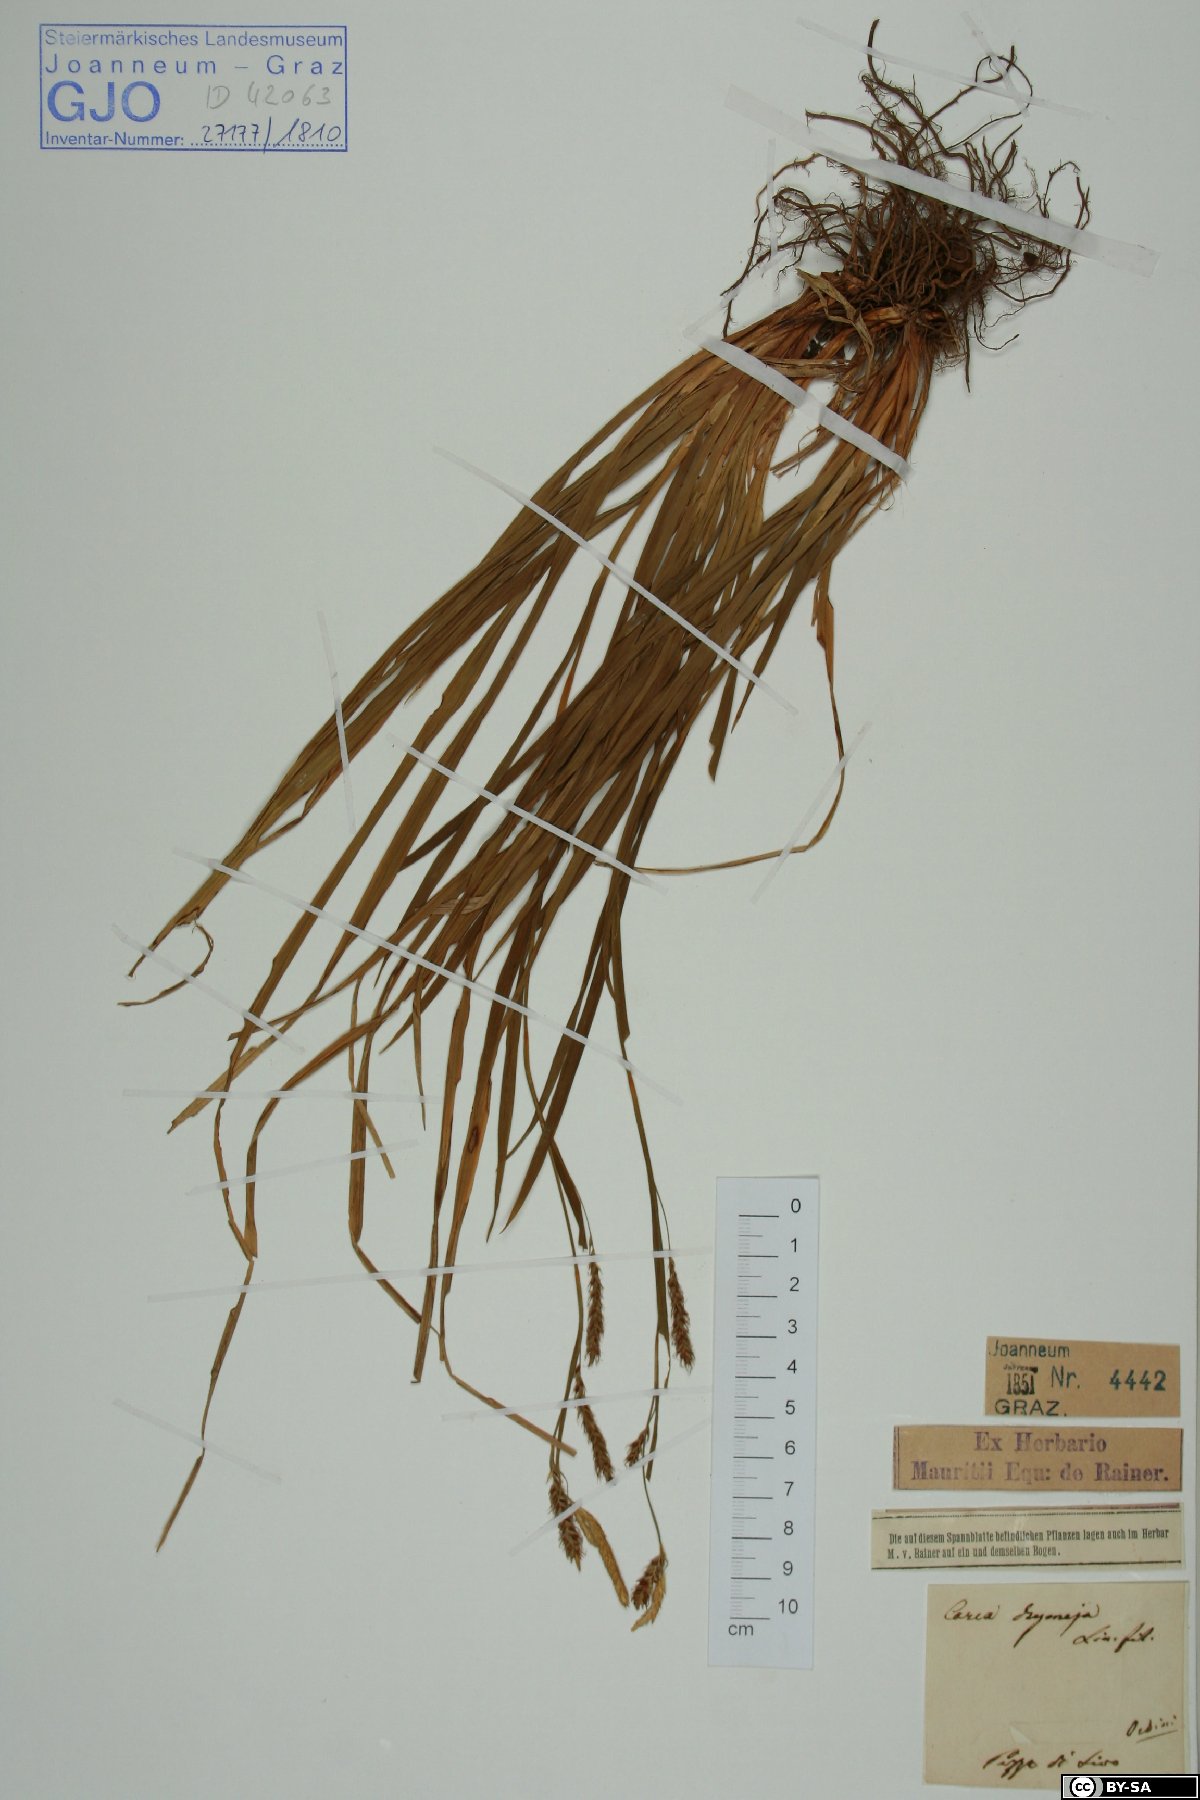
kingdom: Plantae
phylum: Tracheophyta
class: Liliopsida
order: Poales
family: Cyperaceae
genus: Carex
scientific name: Carex sylvatica
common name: Wood-sedge
